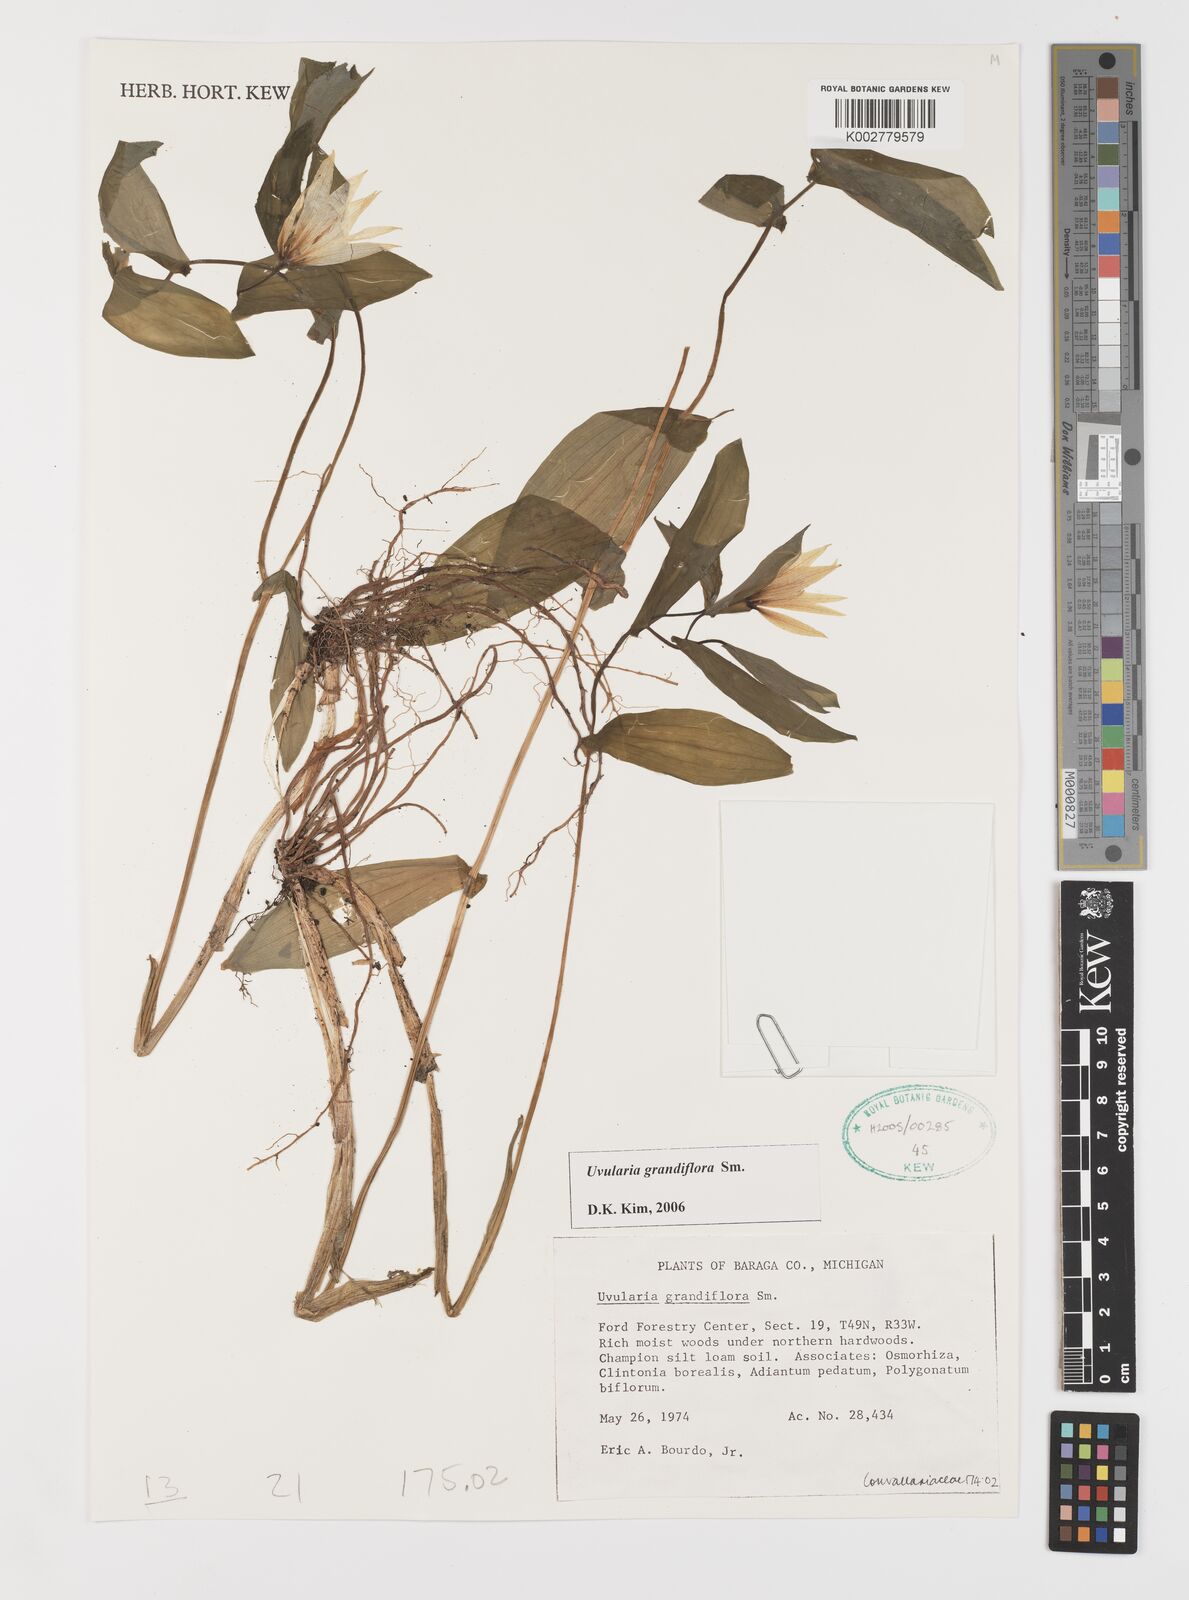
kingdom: Plantae
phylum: Tracheophyta
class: Liliopsida
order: Liliales
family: Colchicaceae
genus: Uvularia
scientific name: Uvularia grandiflora
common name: Bellwort
